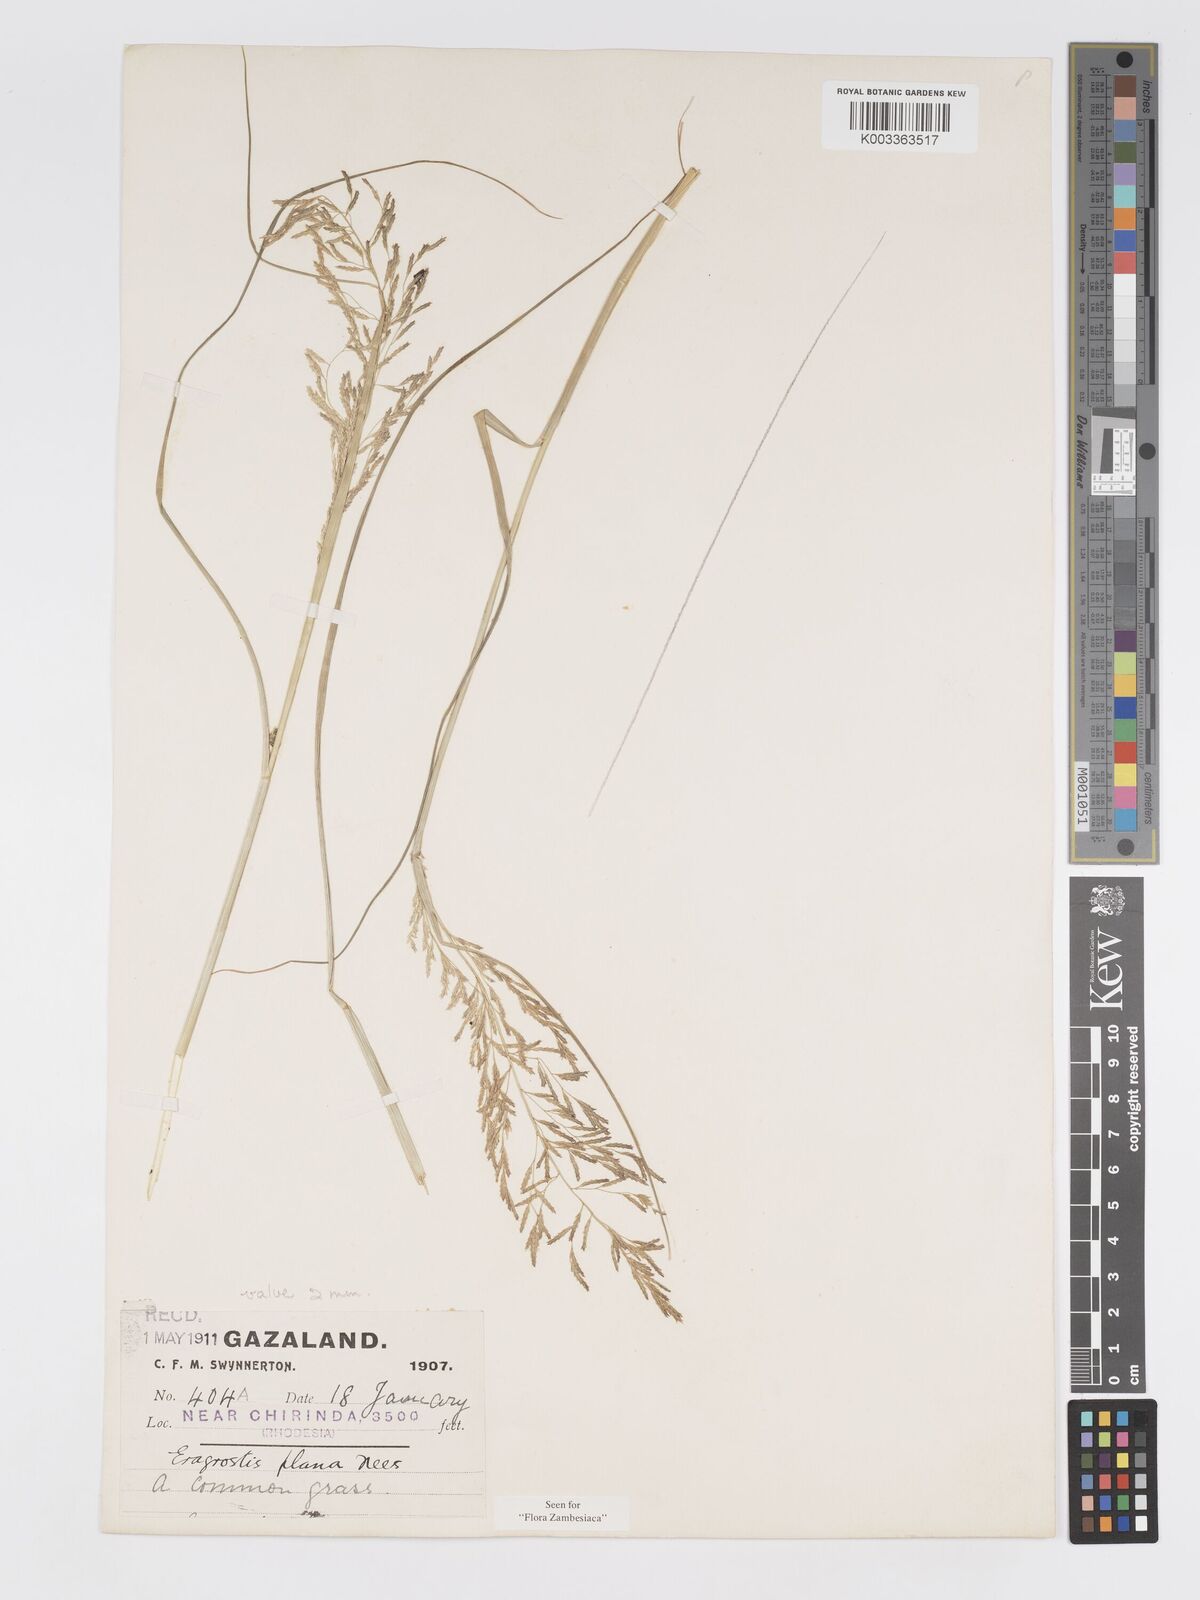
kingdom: Plantae
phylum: Tracheophyta
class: Liliopsida
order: Poales
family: Poaceae
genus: Eragrostis
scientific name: Eragrostis plana
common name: South african lovegrass
